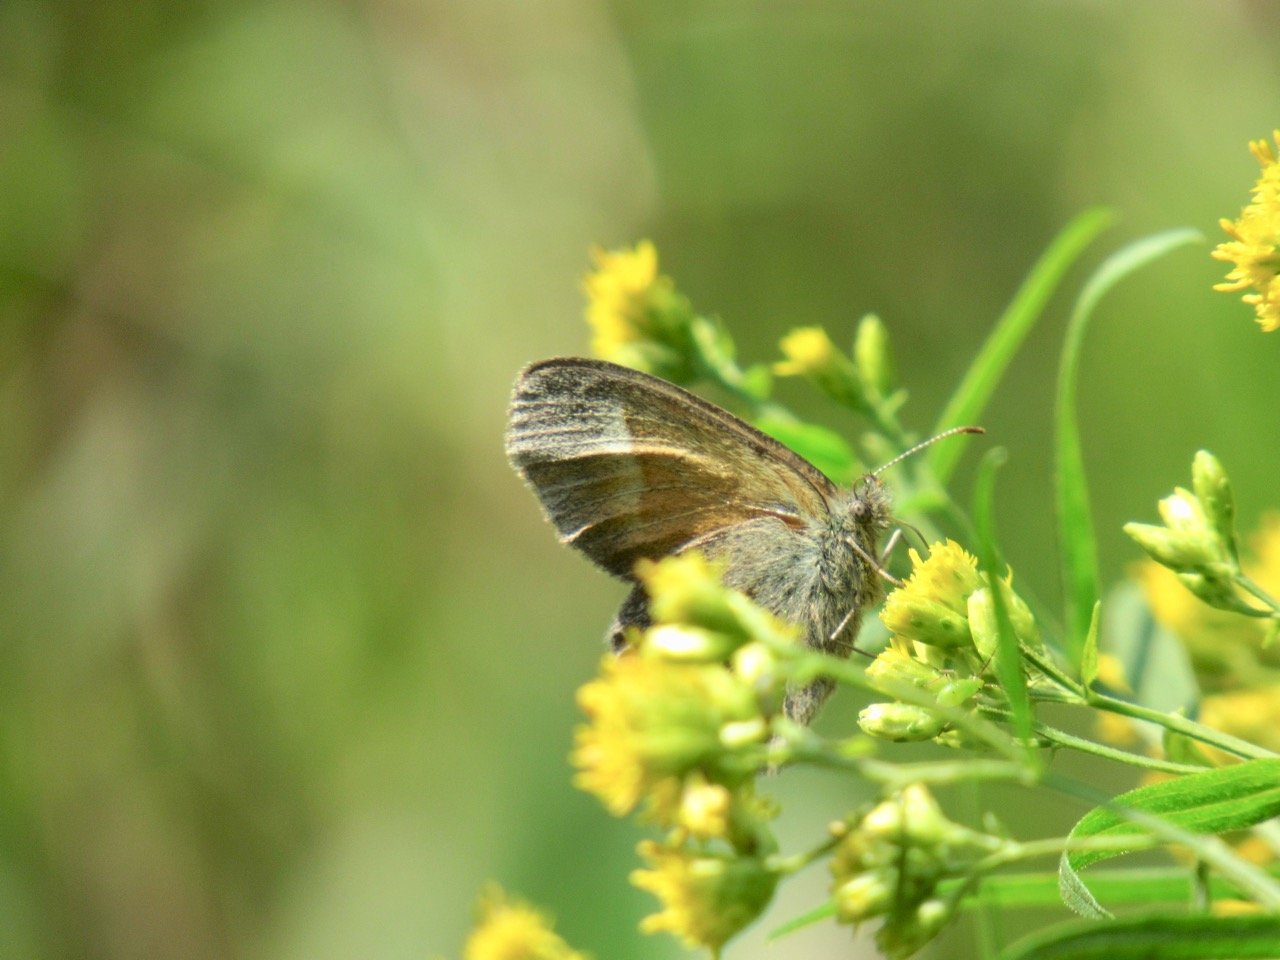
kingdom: Animalia
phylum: Arthropoda
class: Insecta
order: Lepidoptera
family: Nymphalidae
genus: Coenonympha
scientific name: Coenonympha tullia
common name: Large Heath
